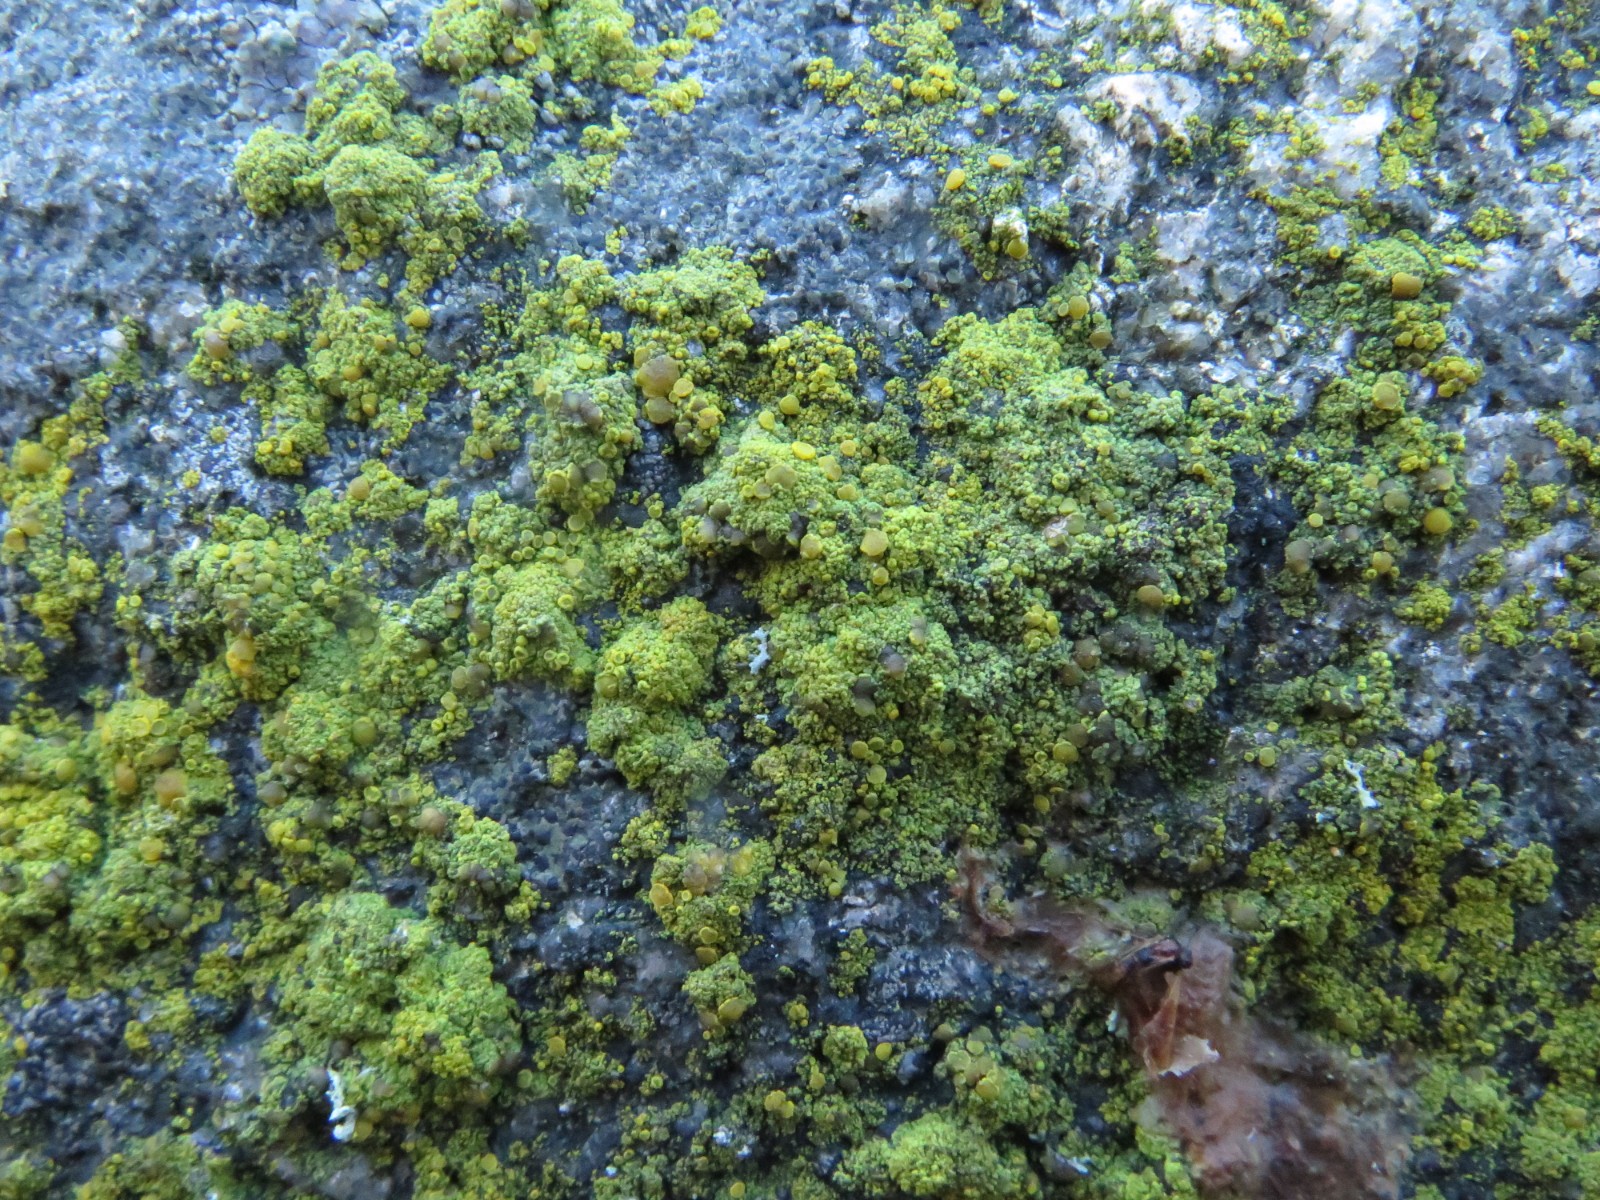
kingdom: Fungi
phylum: Ascomycota
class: Candelariomycetes
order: Candelariales
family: Candelariaceae
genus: Candelariella
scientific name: Candelariella vitellina
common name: almindelig æggeblommelav
